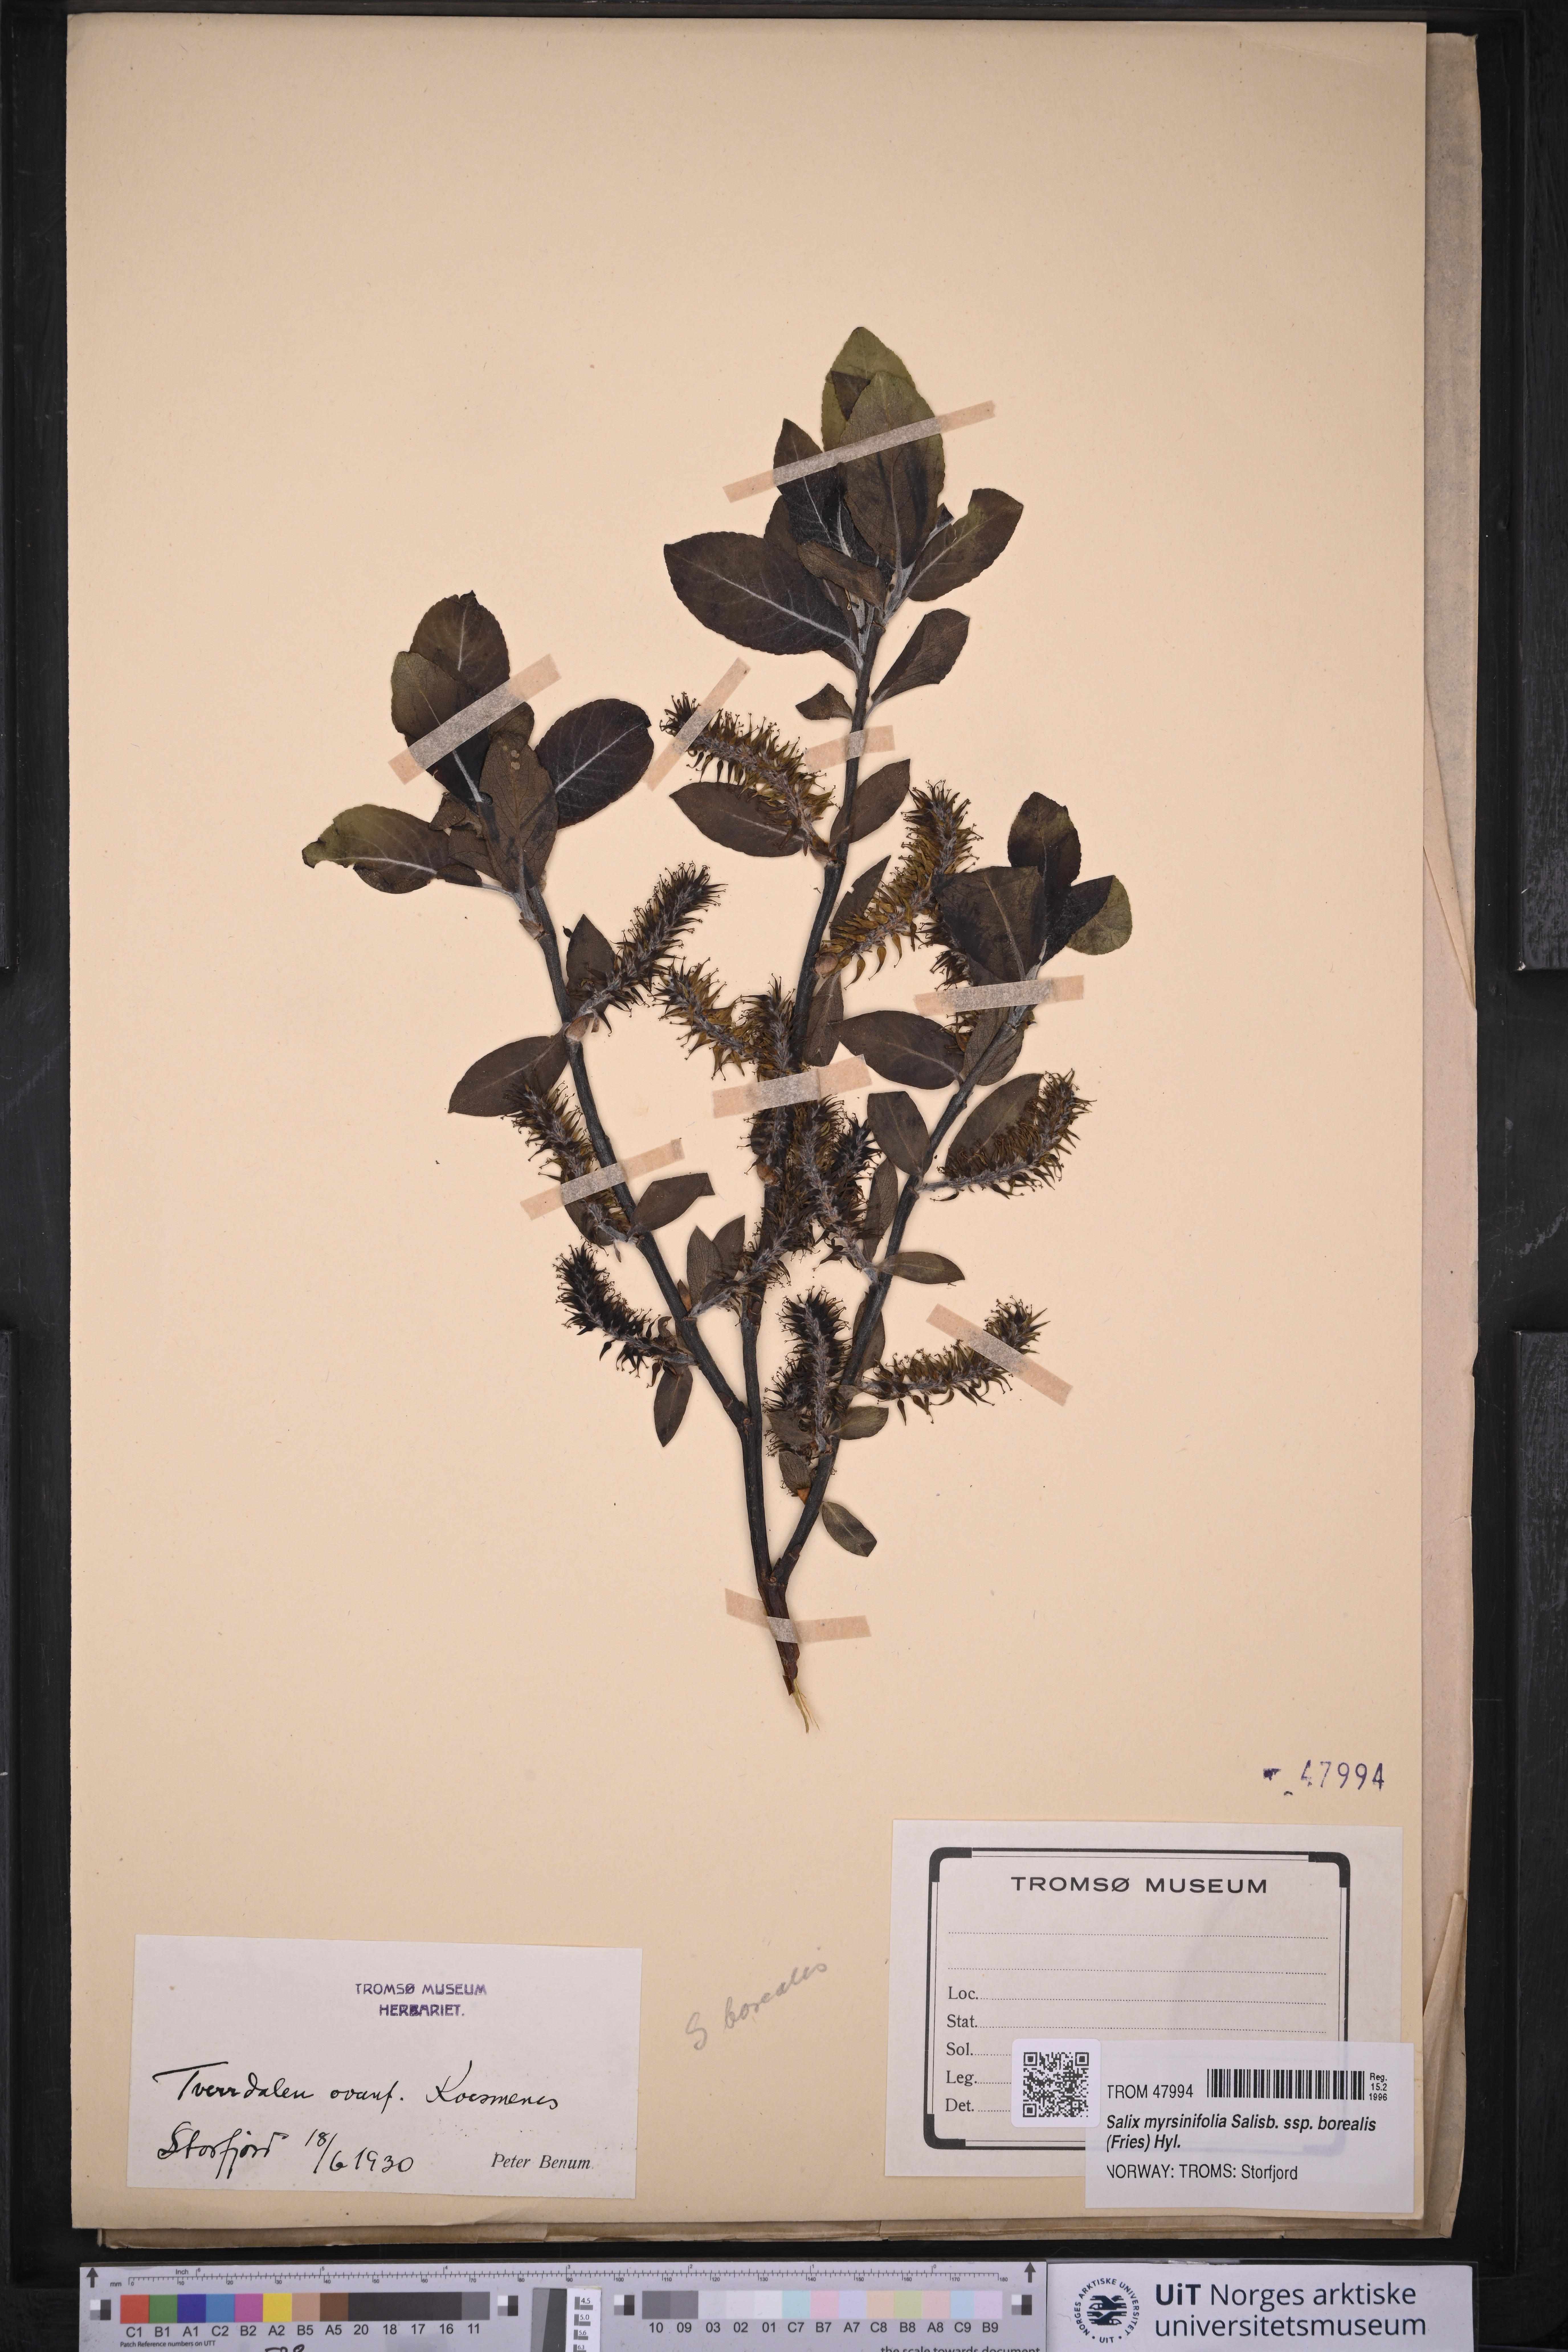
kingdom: Plantae
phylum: Tracheophyta
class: Magnoliopsida
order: Malpighiales
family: Salicaceae
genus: Salix
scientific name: Salix myrsinifolia
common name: Dark-leaved willow
